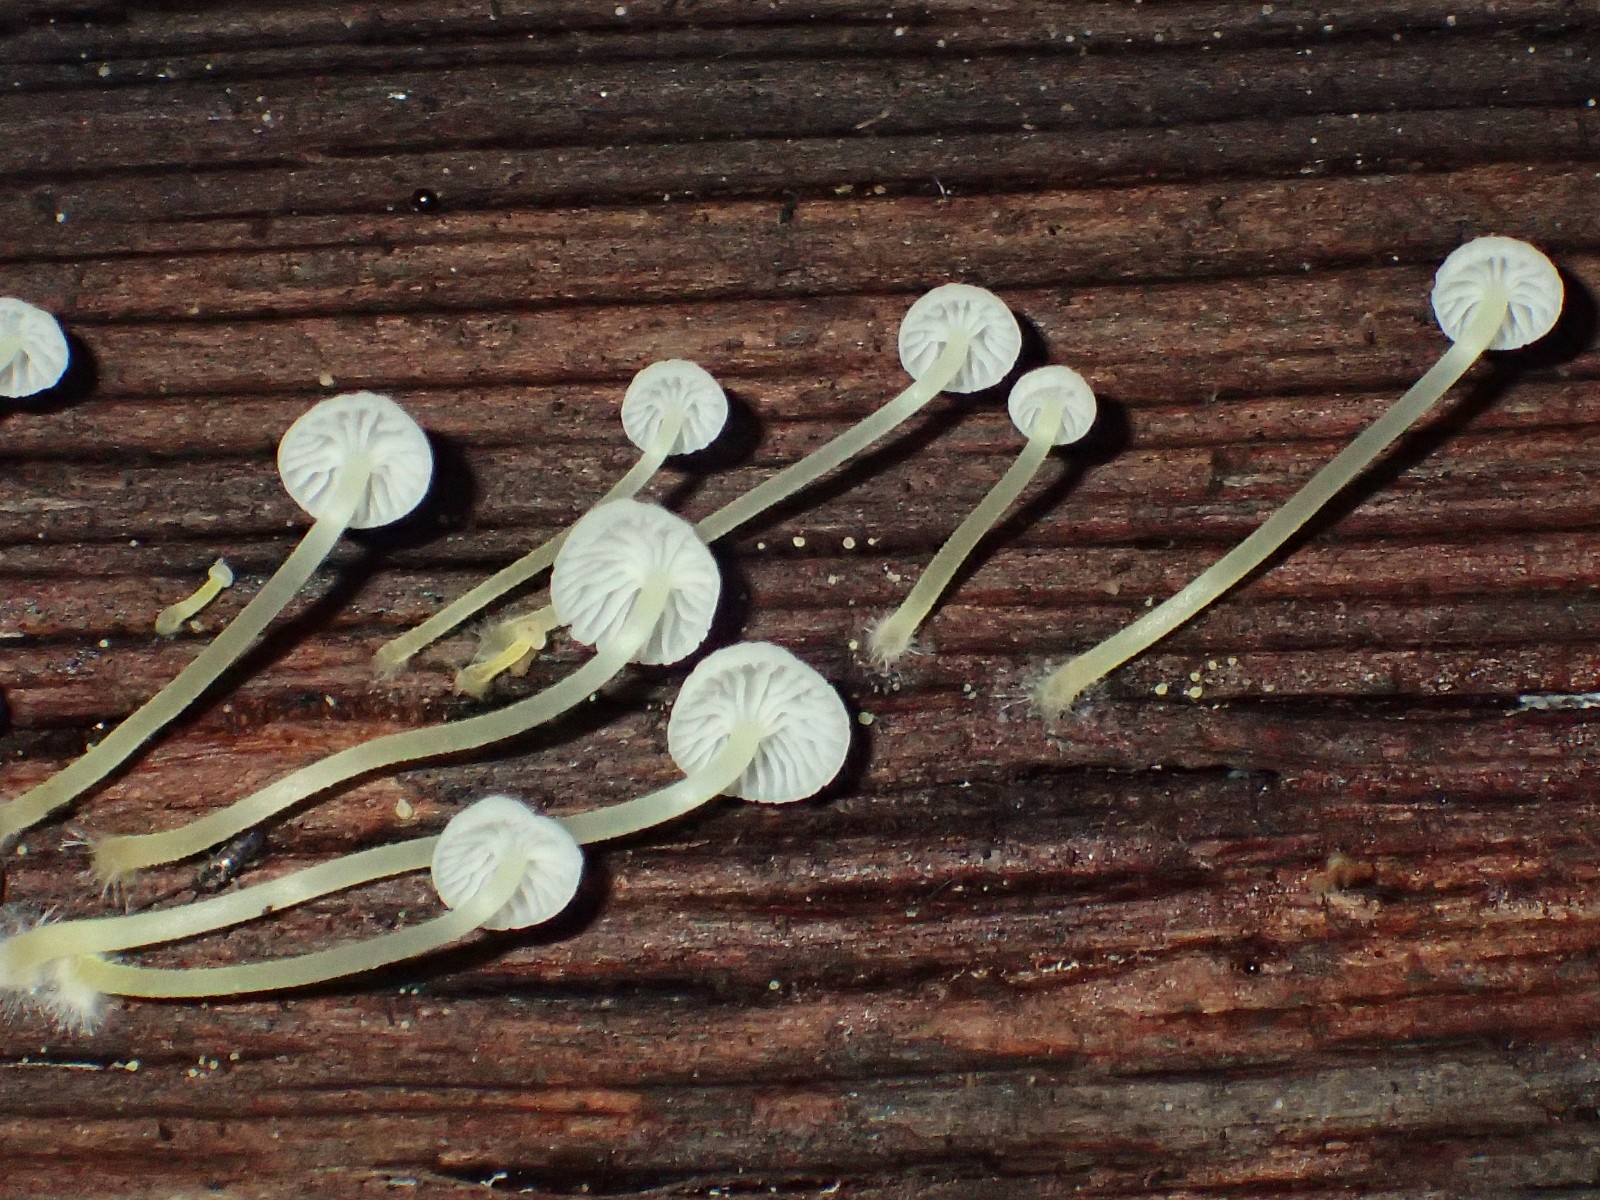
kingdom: Fungi
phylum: Basidiomycota
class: Agaricomycetes
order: Agaricales
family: Porotheleaceae
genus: Phloeomana
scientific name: Phloeomana speirea
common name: kvist-huesvamp
